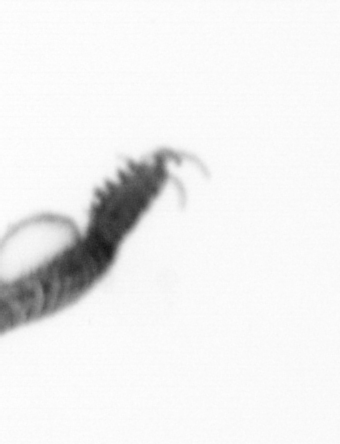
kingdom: Animalia
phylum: Annelida
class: Polychaeta
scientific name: Polychaeta
